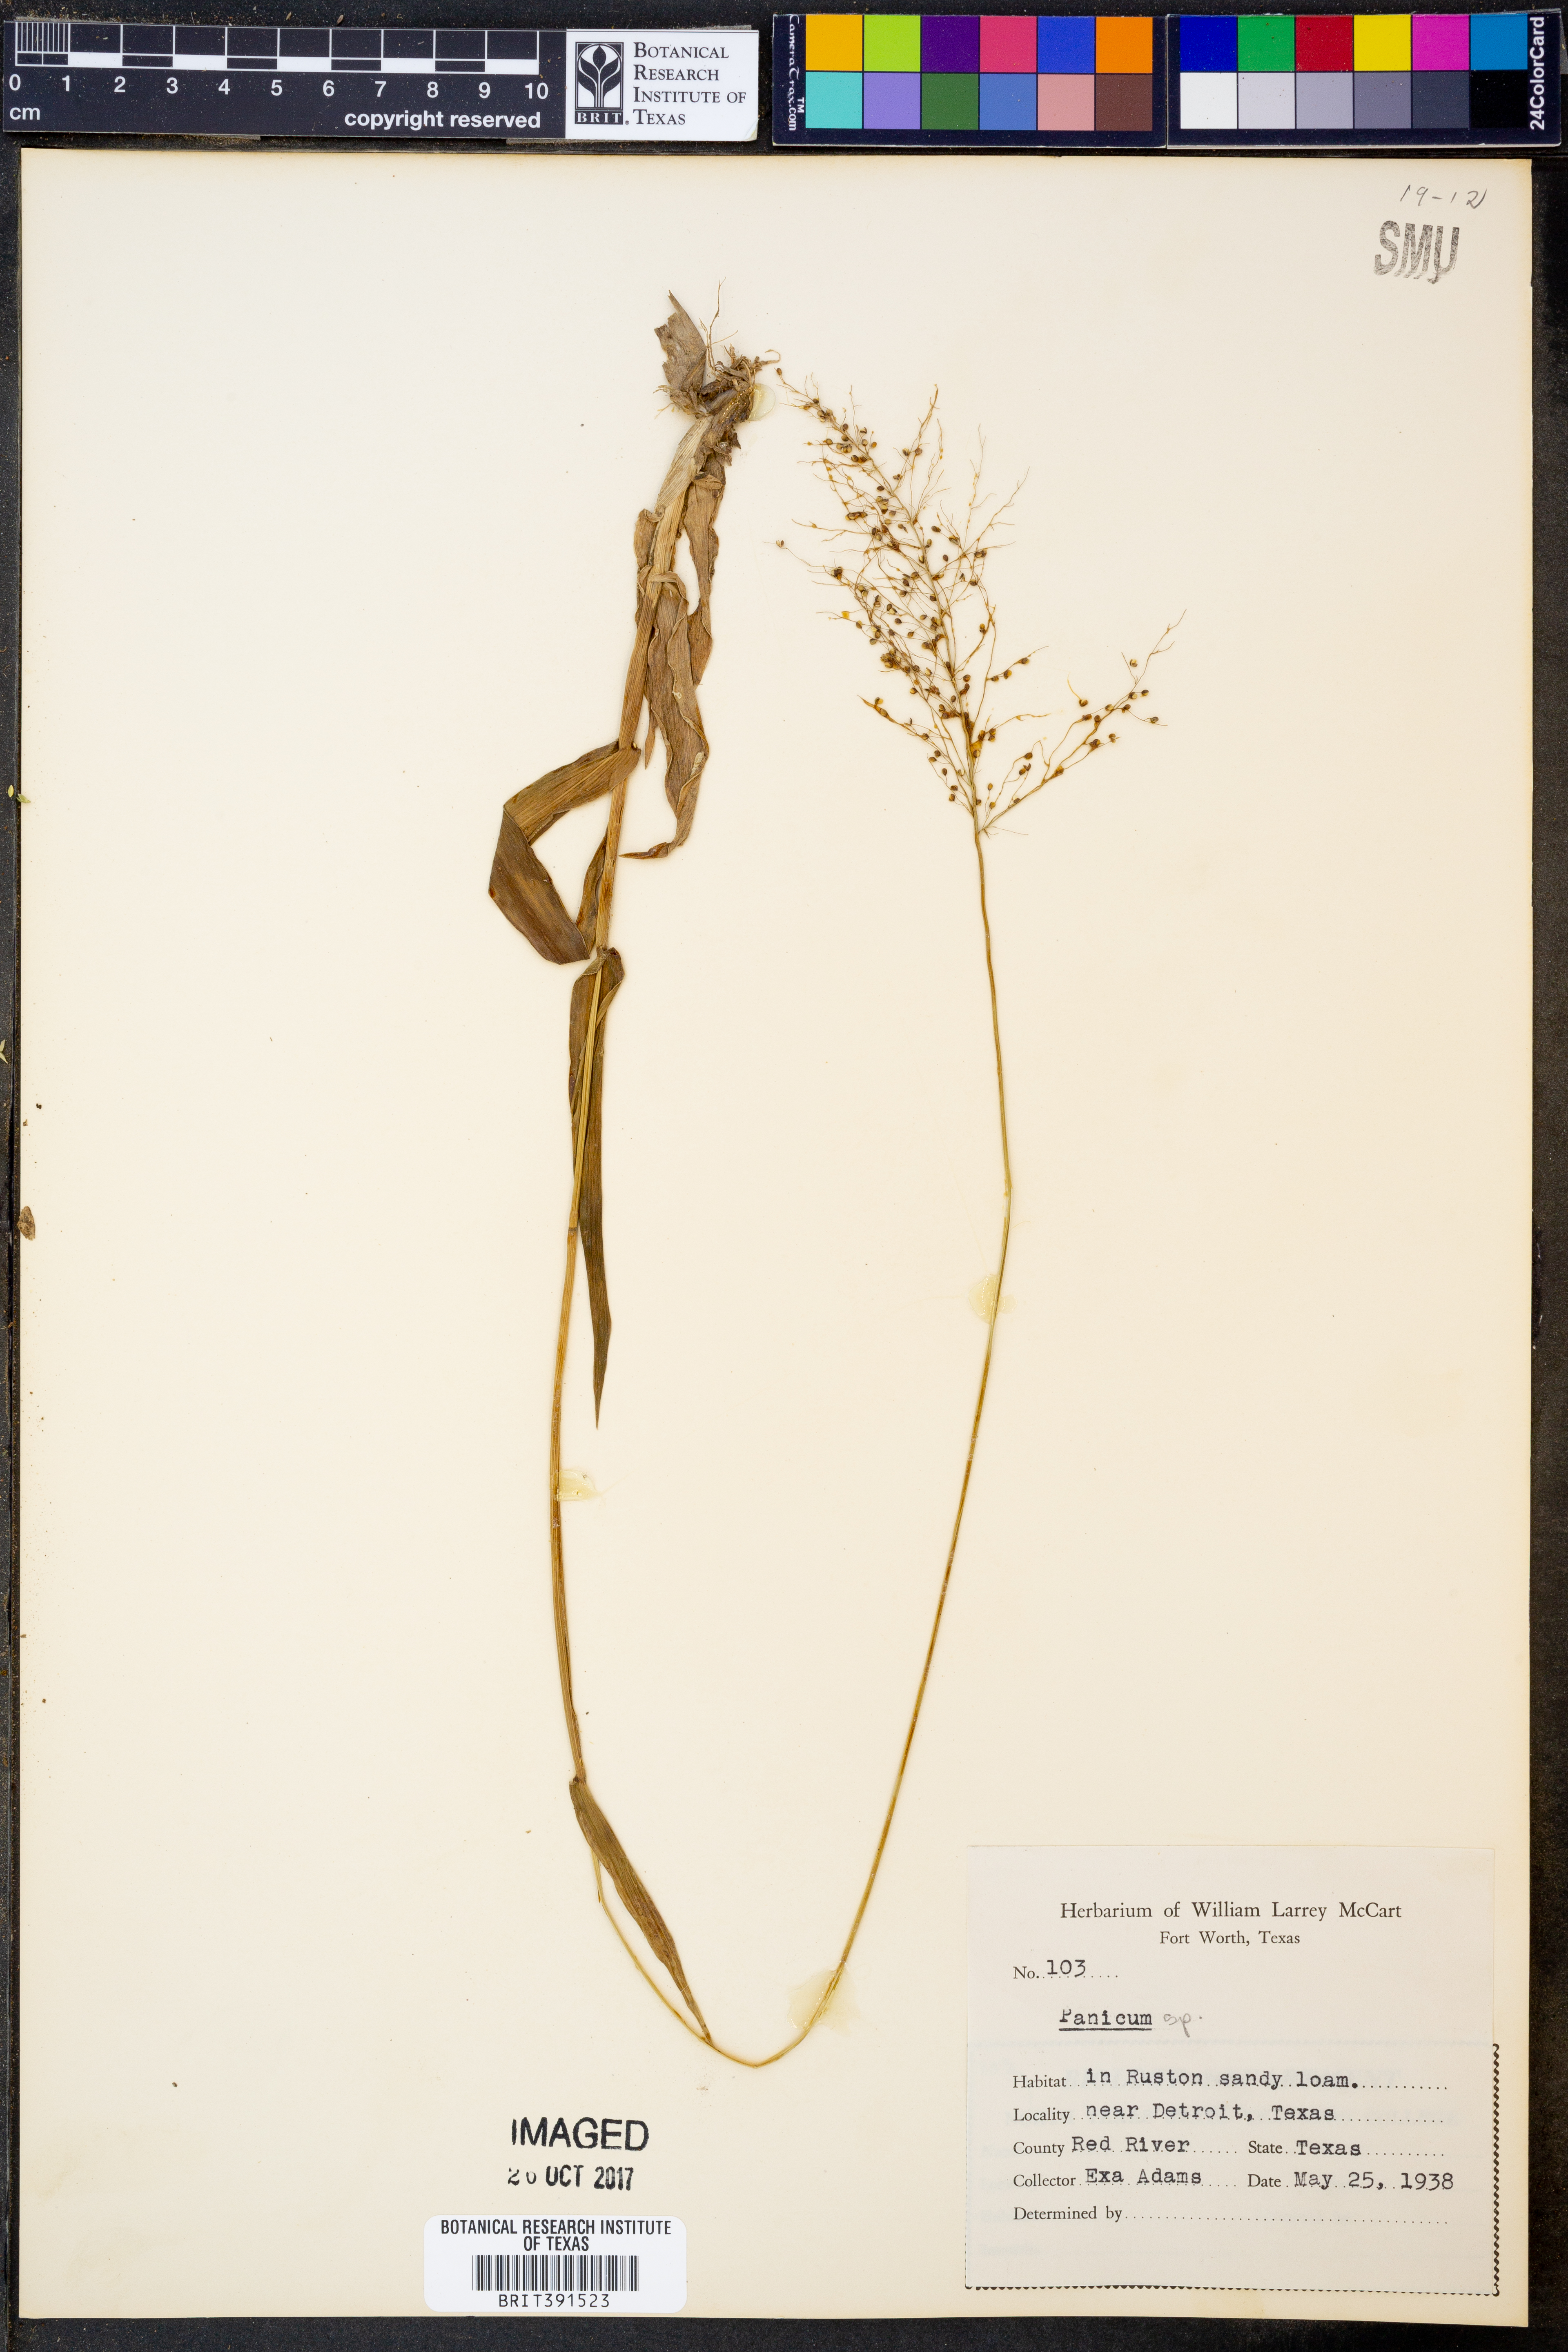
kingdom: Plantae
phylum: Tracheophyta
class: Liliopsida
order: Poales
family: Poaceae
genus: Panicum
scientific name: Panicum
